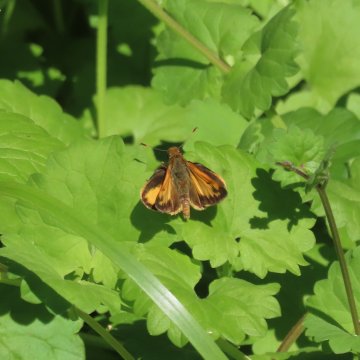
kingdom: Animalia
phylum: Arthropoda
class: Insecta
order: Lepidoptera
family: Hesperiidae
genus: Lon
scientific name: Lon zabulon
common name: Zabulon Skipper
